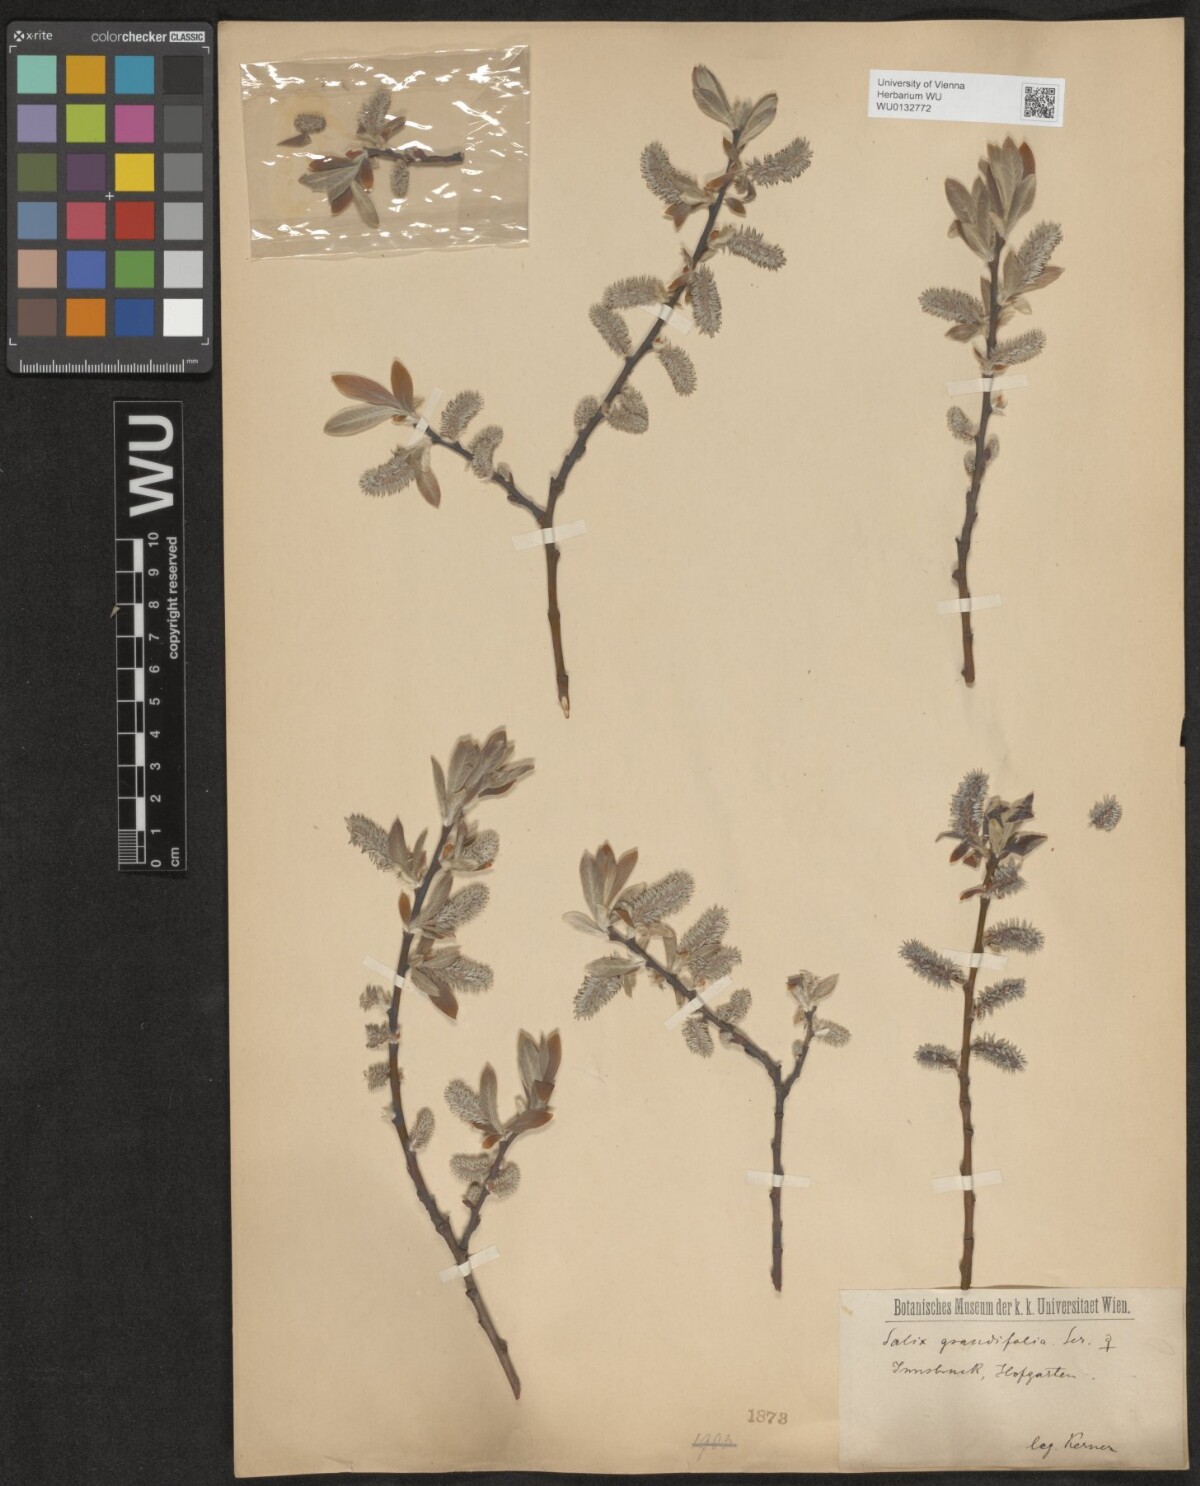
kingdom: Plantae
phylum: Tracheophyta
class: Magnoliopsida
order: Malpighiales
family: Salicaceae
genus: Salix
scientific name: Salix appendiculata
